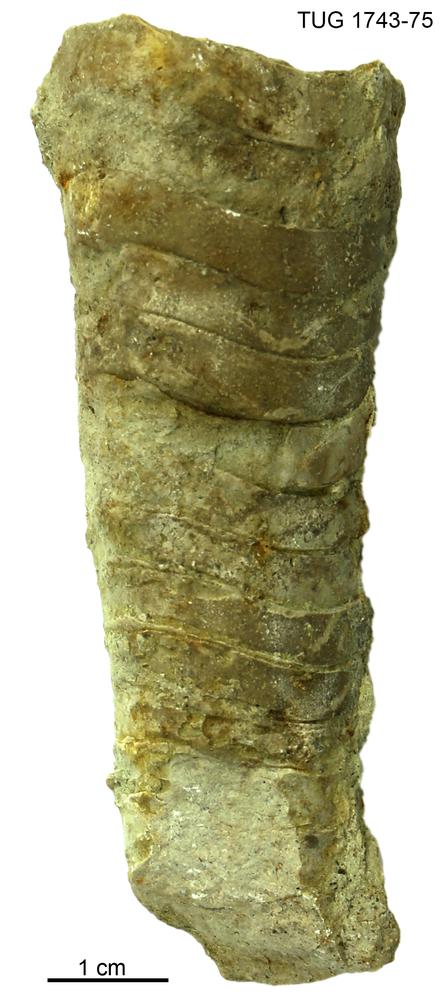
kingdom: Animalia
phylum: Mollusca
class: Cephalopoda
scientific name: Cephalopoda
